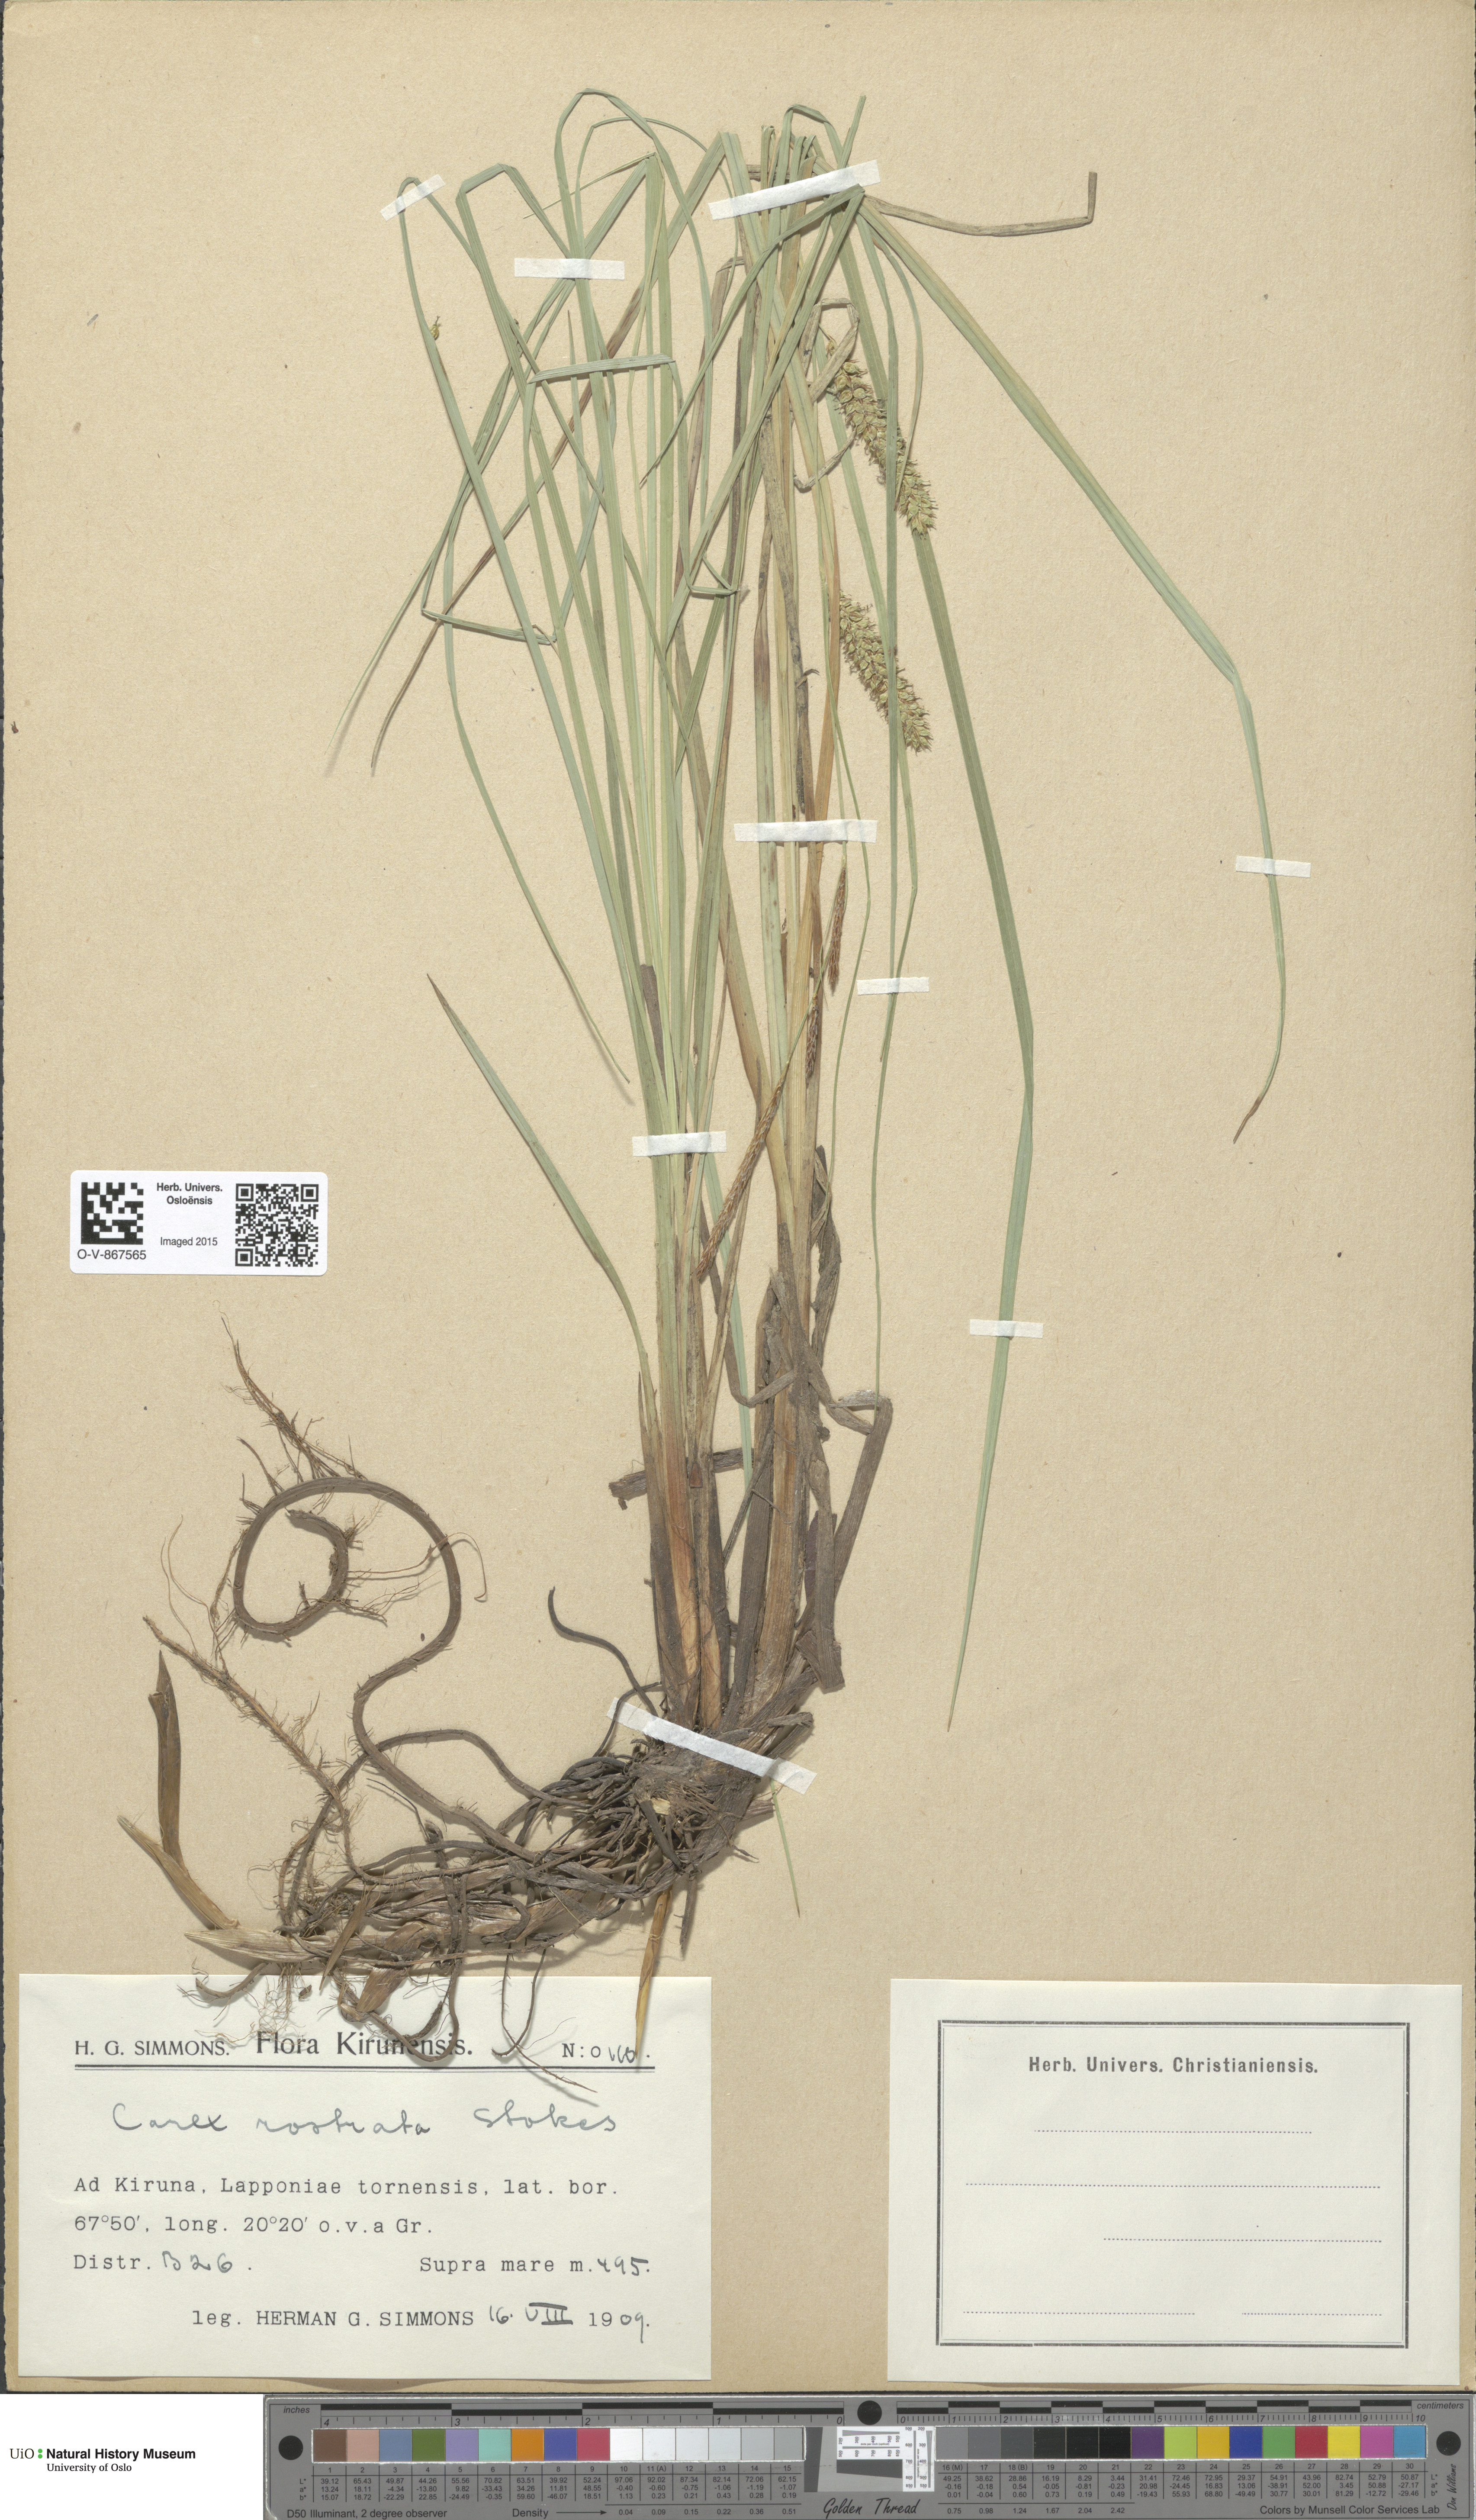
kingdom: Plantae
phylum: Tracheophyta
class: Liliopsida
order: Poales
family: Cyperaceae
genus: Carex
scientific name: Carex rostrata
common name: Bottle sedge
